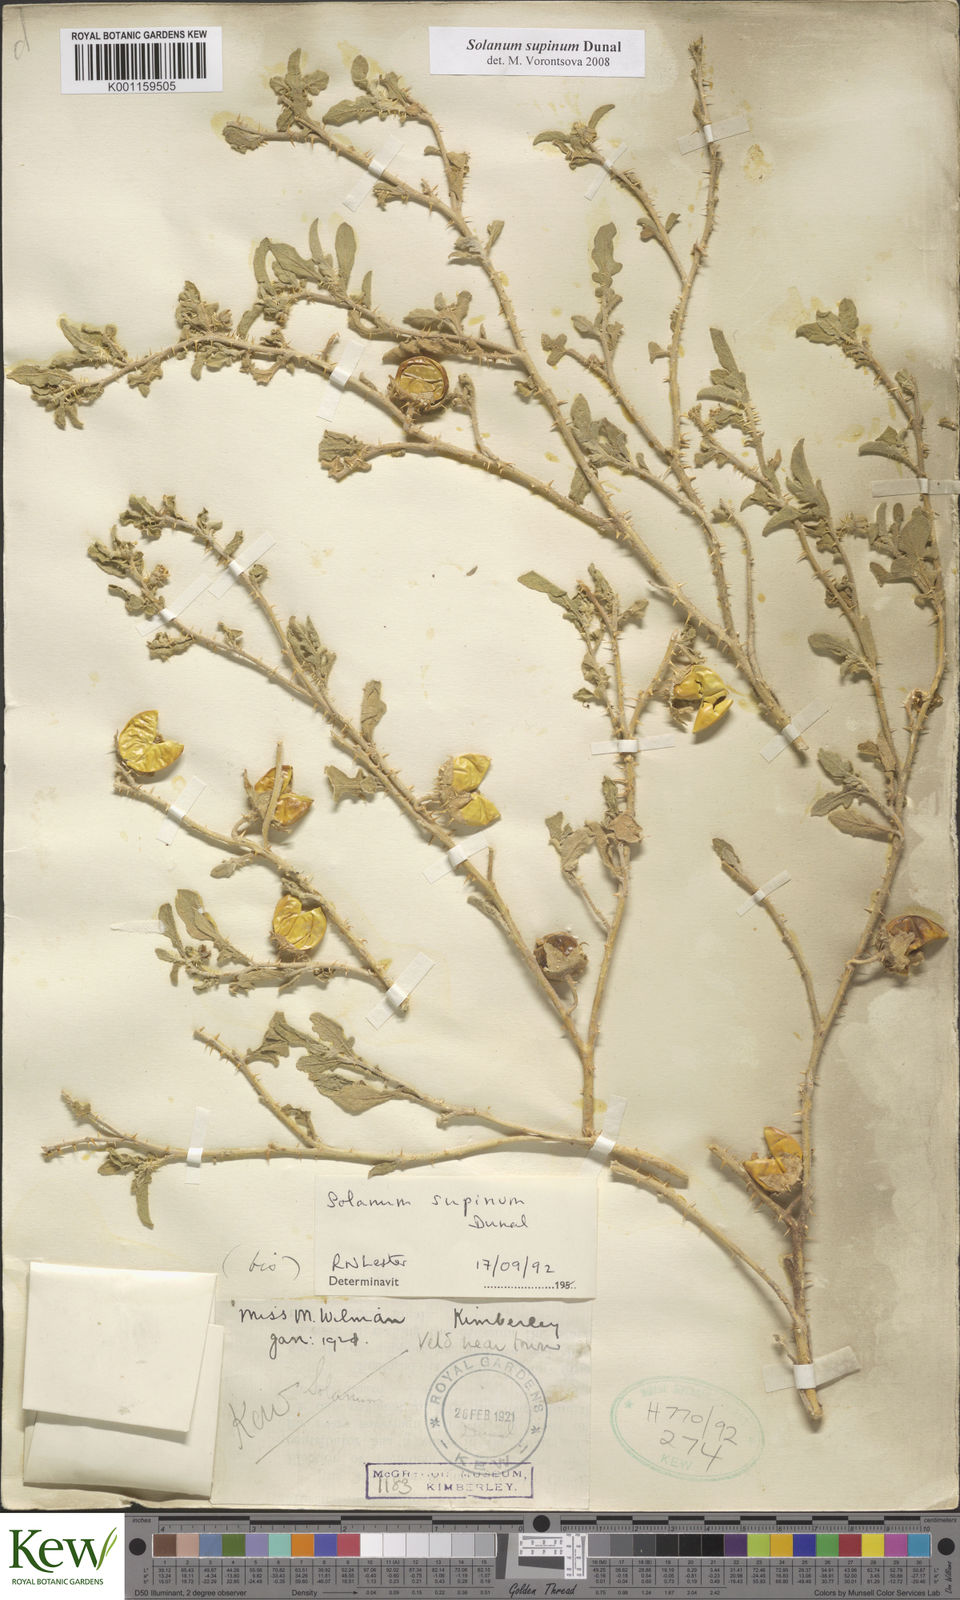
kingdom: Plantae
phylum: Tracheophyta
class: Magnoliopsida
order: Solanales
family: Solanaceae
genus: Solanum
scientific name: Solanum supinum
